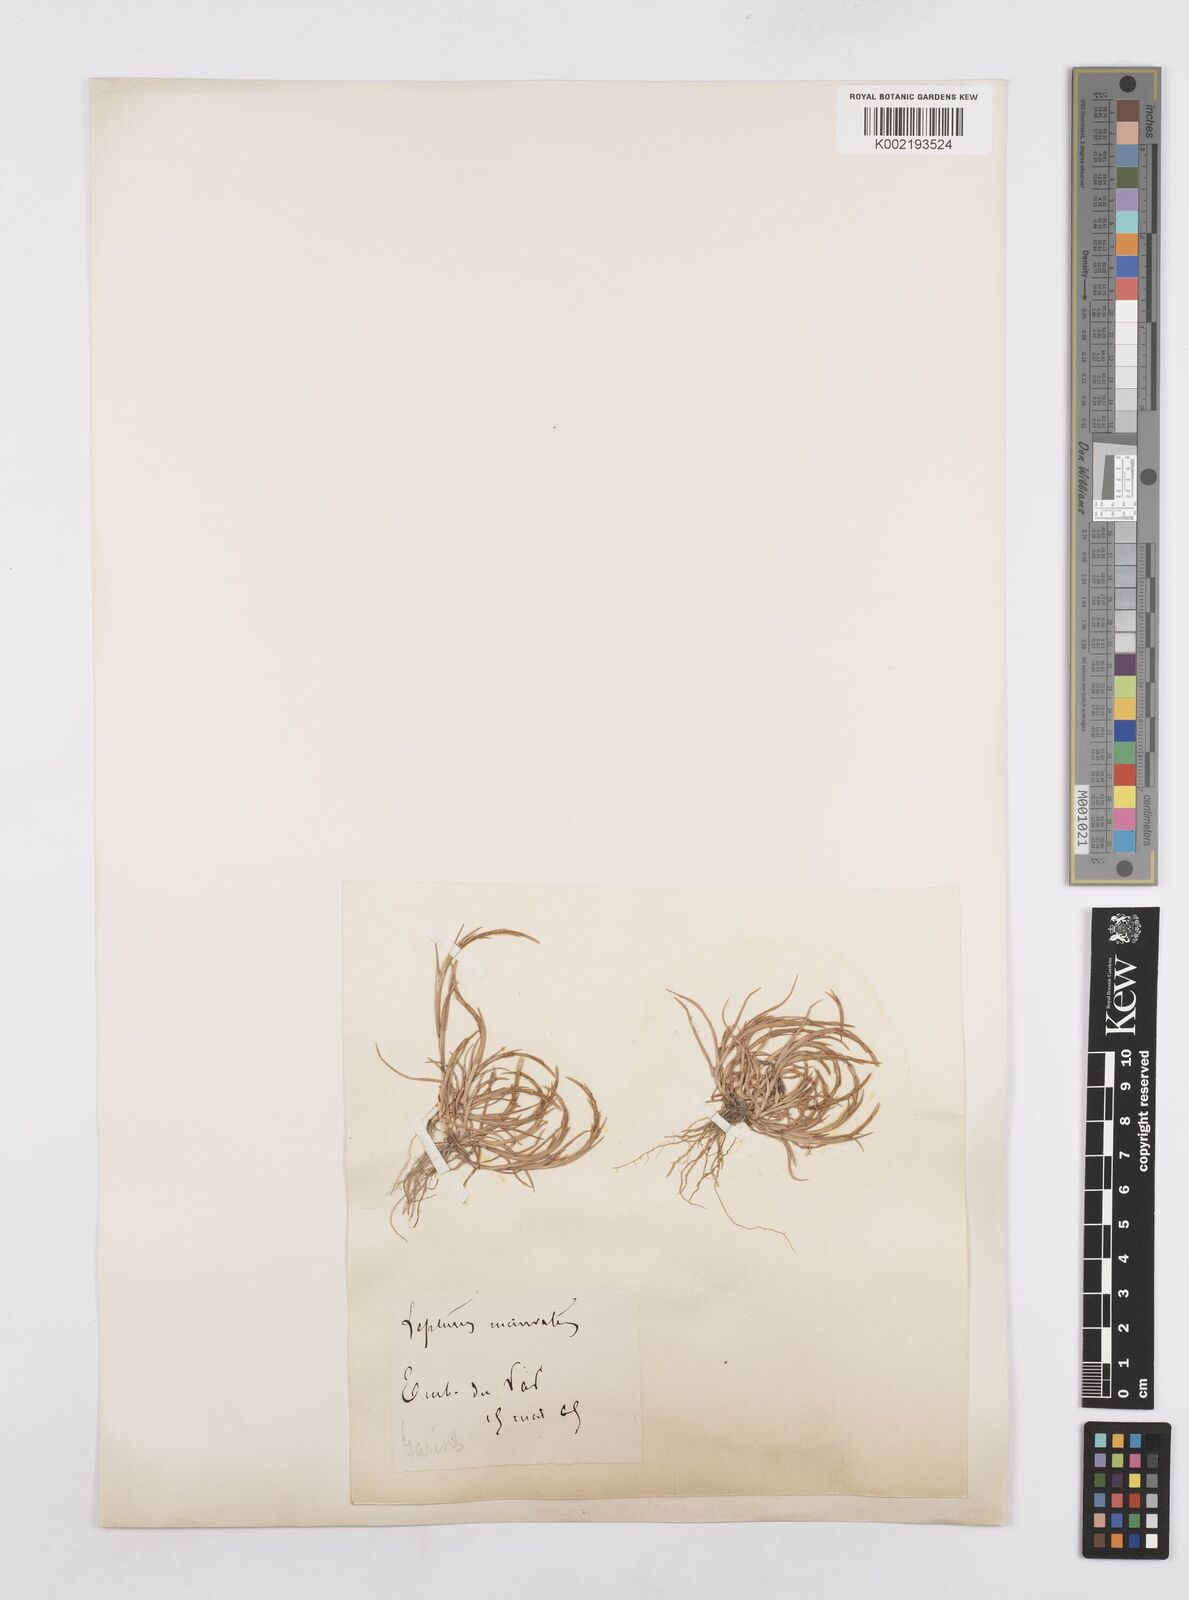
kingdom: Plantae
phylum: Tracheophyta
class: Liliopsida
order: Poales
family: Poaceae
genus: Parapholis
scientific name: Parapholis incurva
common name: Curved sicklegrass
